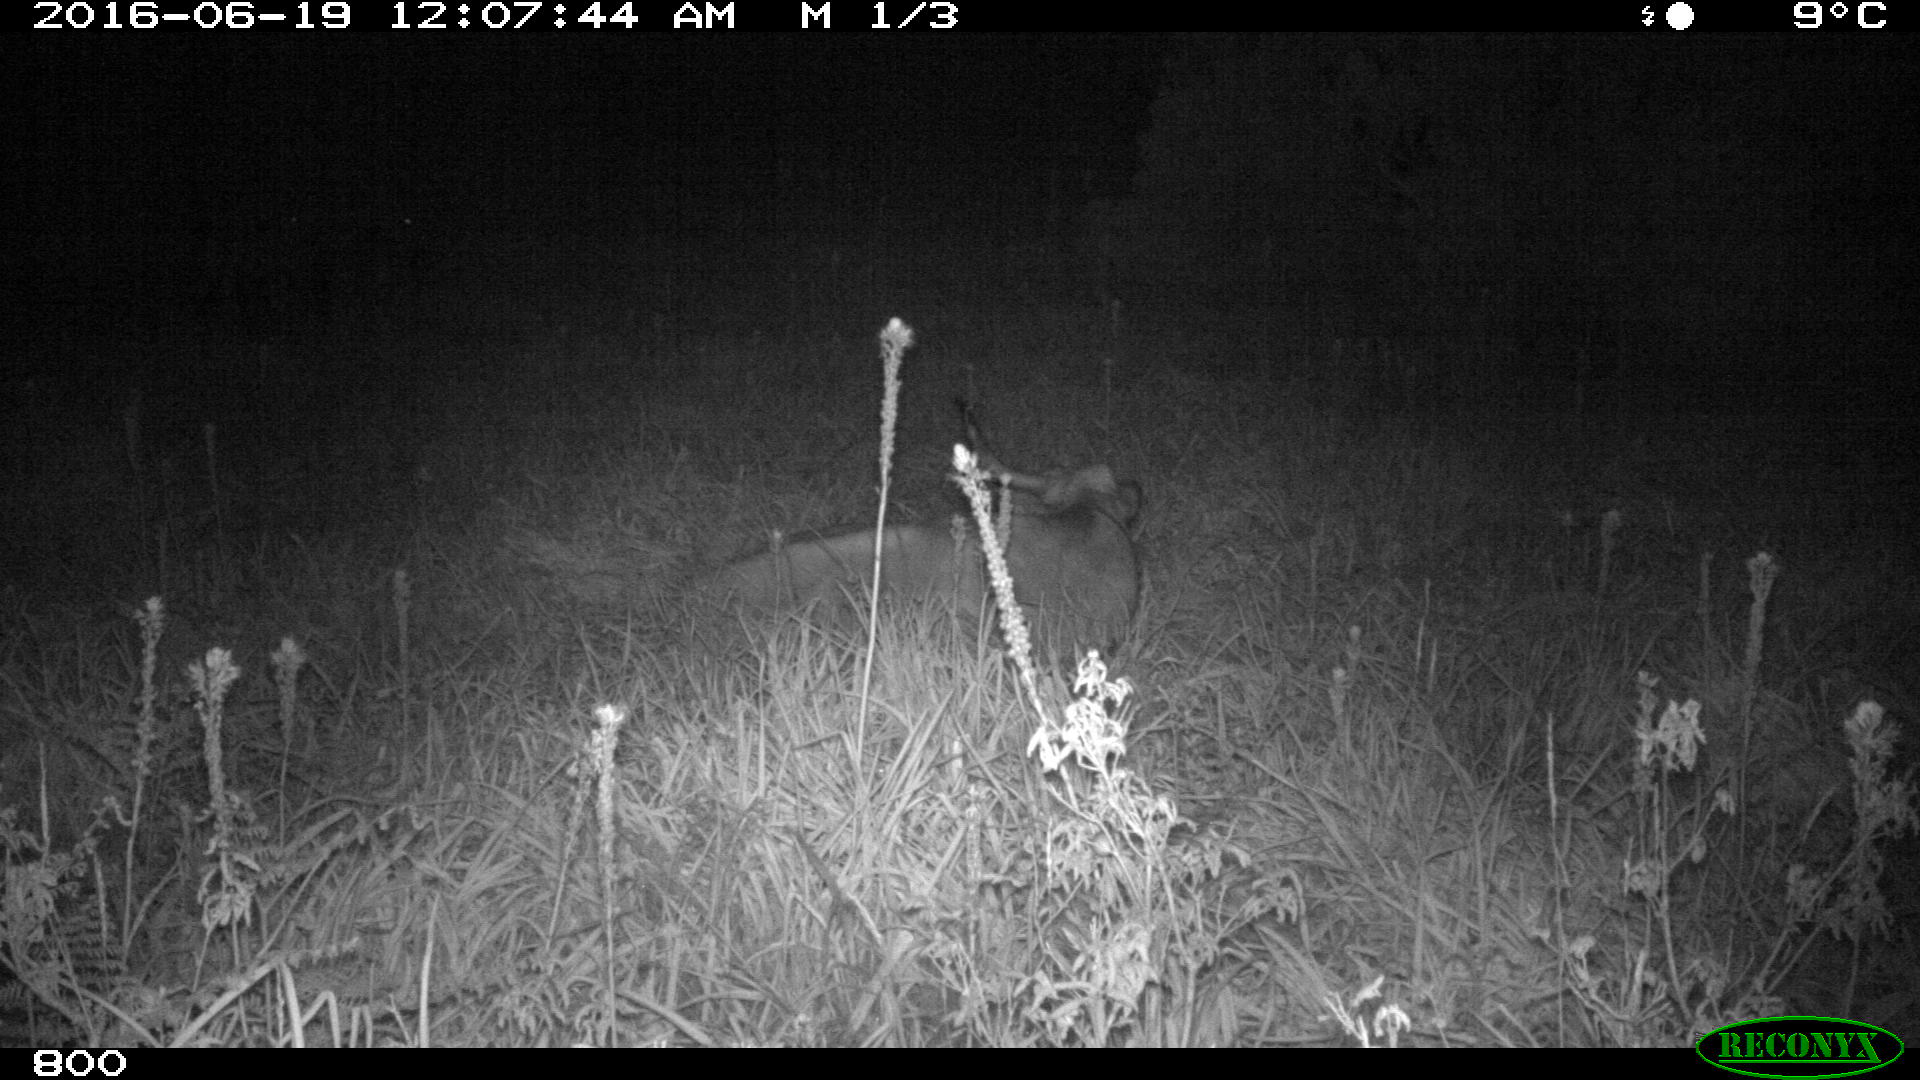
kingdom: Animalia
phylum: Chordata
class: Mammalia
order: Artiodactyla
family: Bovidae
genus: Bos
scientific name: Bos taurus
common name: Domesticated cattle
